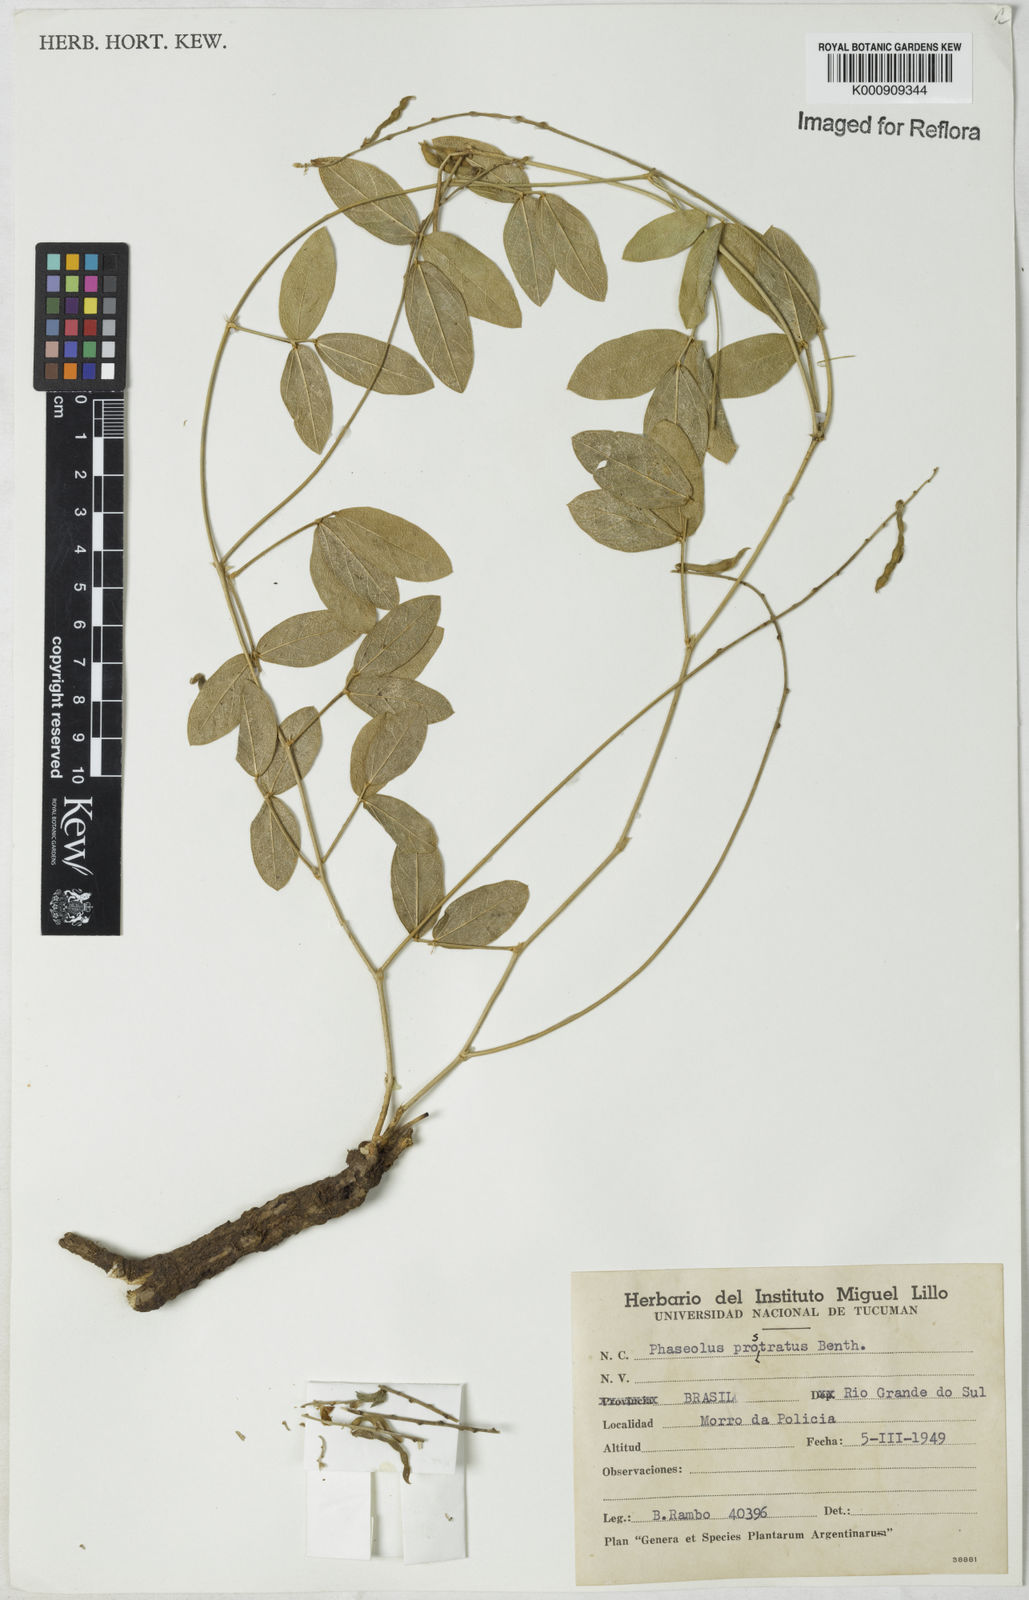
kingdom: Plantae
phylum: Tracheophyta
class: Magnoliopsida
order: Fabales
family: Fabaceae
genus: Macroptilium
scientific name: Macroptilium prostratum
